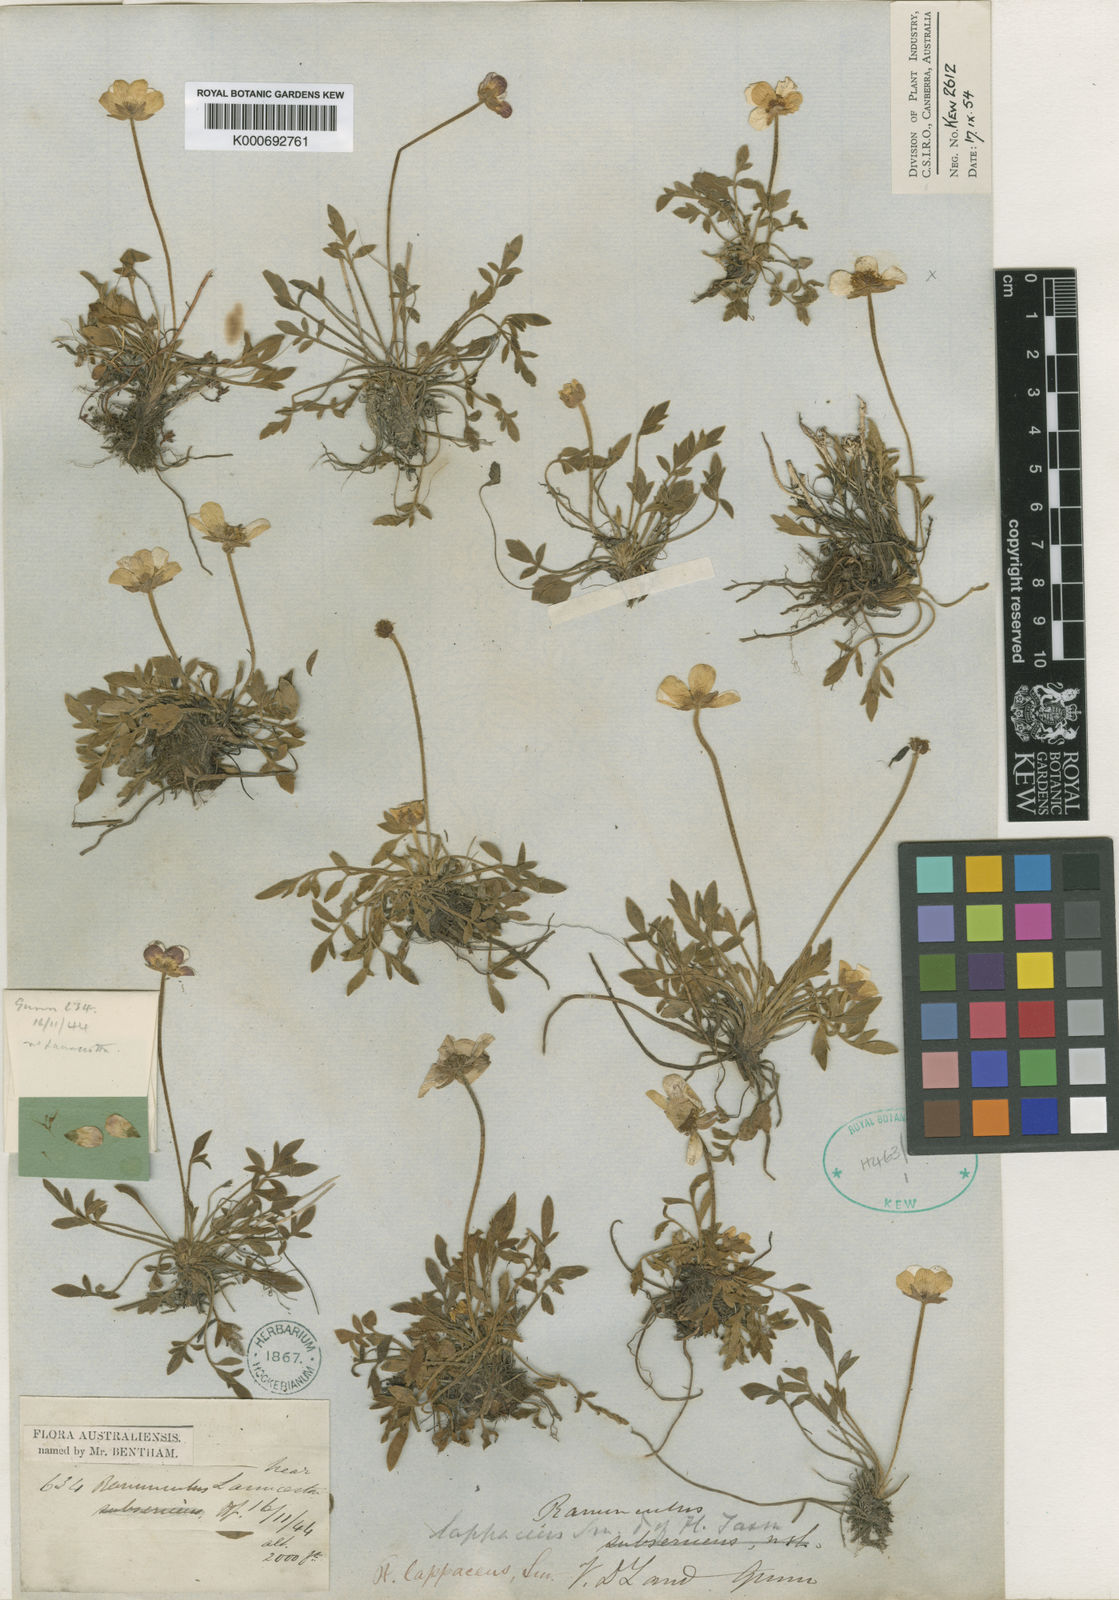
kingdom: Plantae
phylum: Tracheophyta
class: Magnoliopsida
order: Ranunculales
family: Ranunculaceae
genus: Ranunculus
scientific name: Ranunculus lappaceus
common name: Australian buttercup
